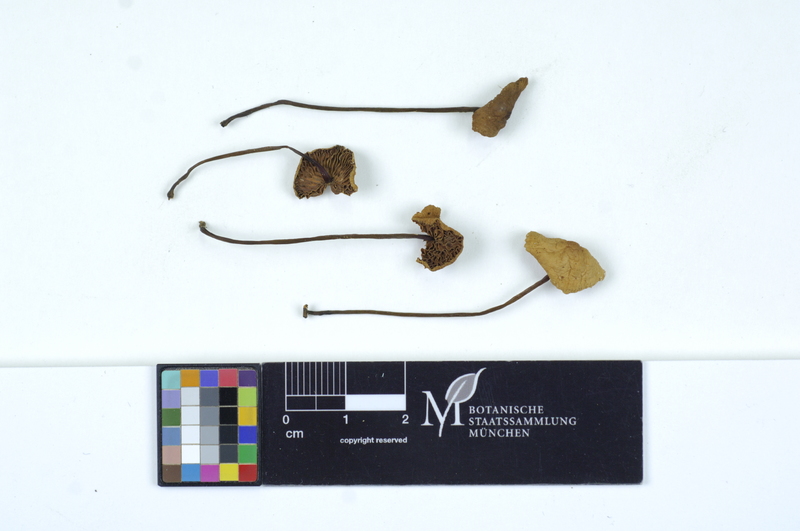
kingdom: Plantae
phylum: Tracheophyta
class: Pinopsida
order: Pinales
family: Pinaceae
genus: Picea
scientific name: Picea
